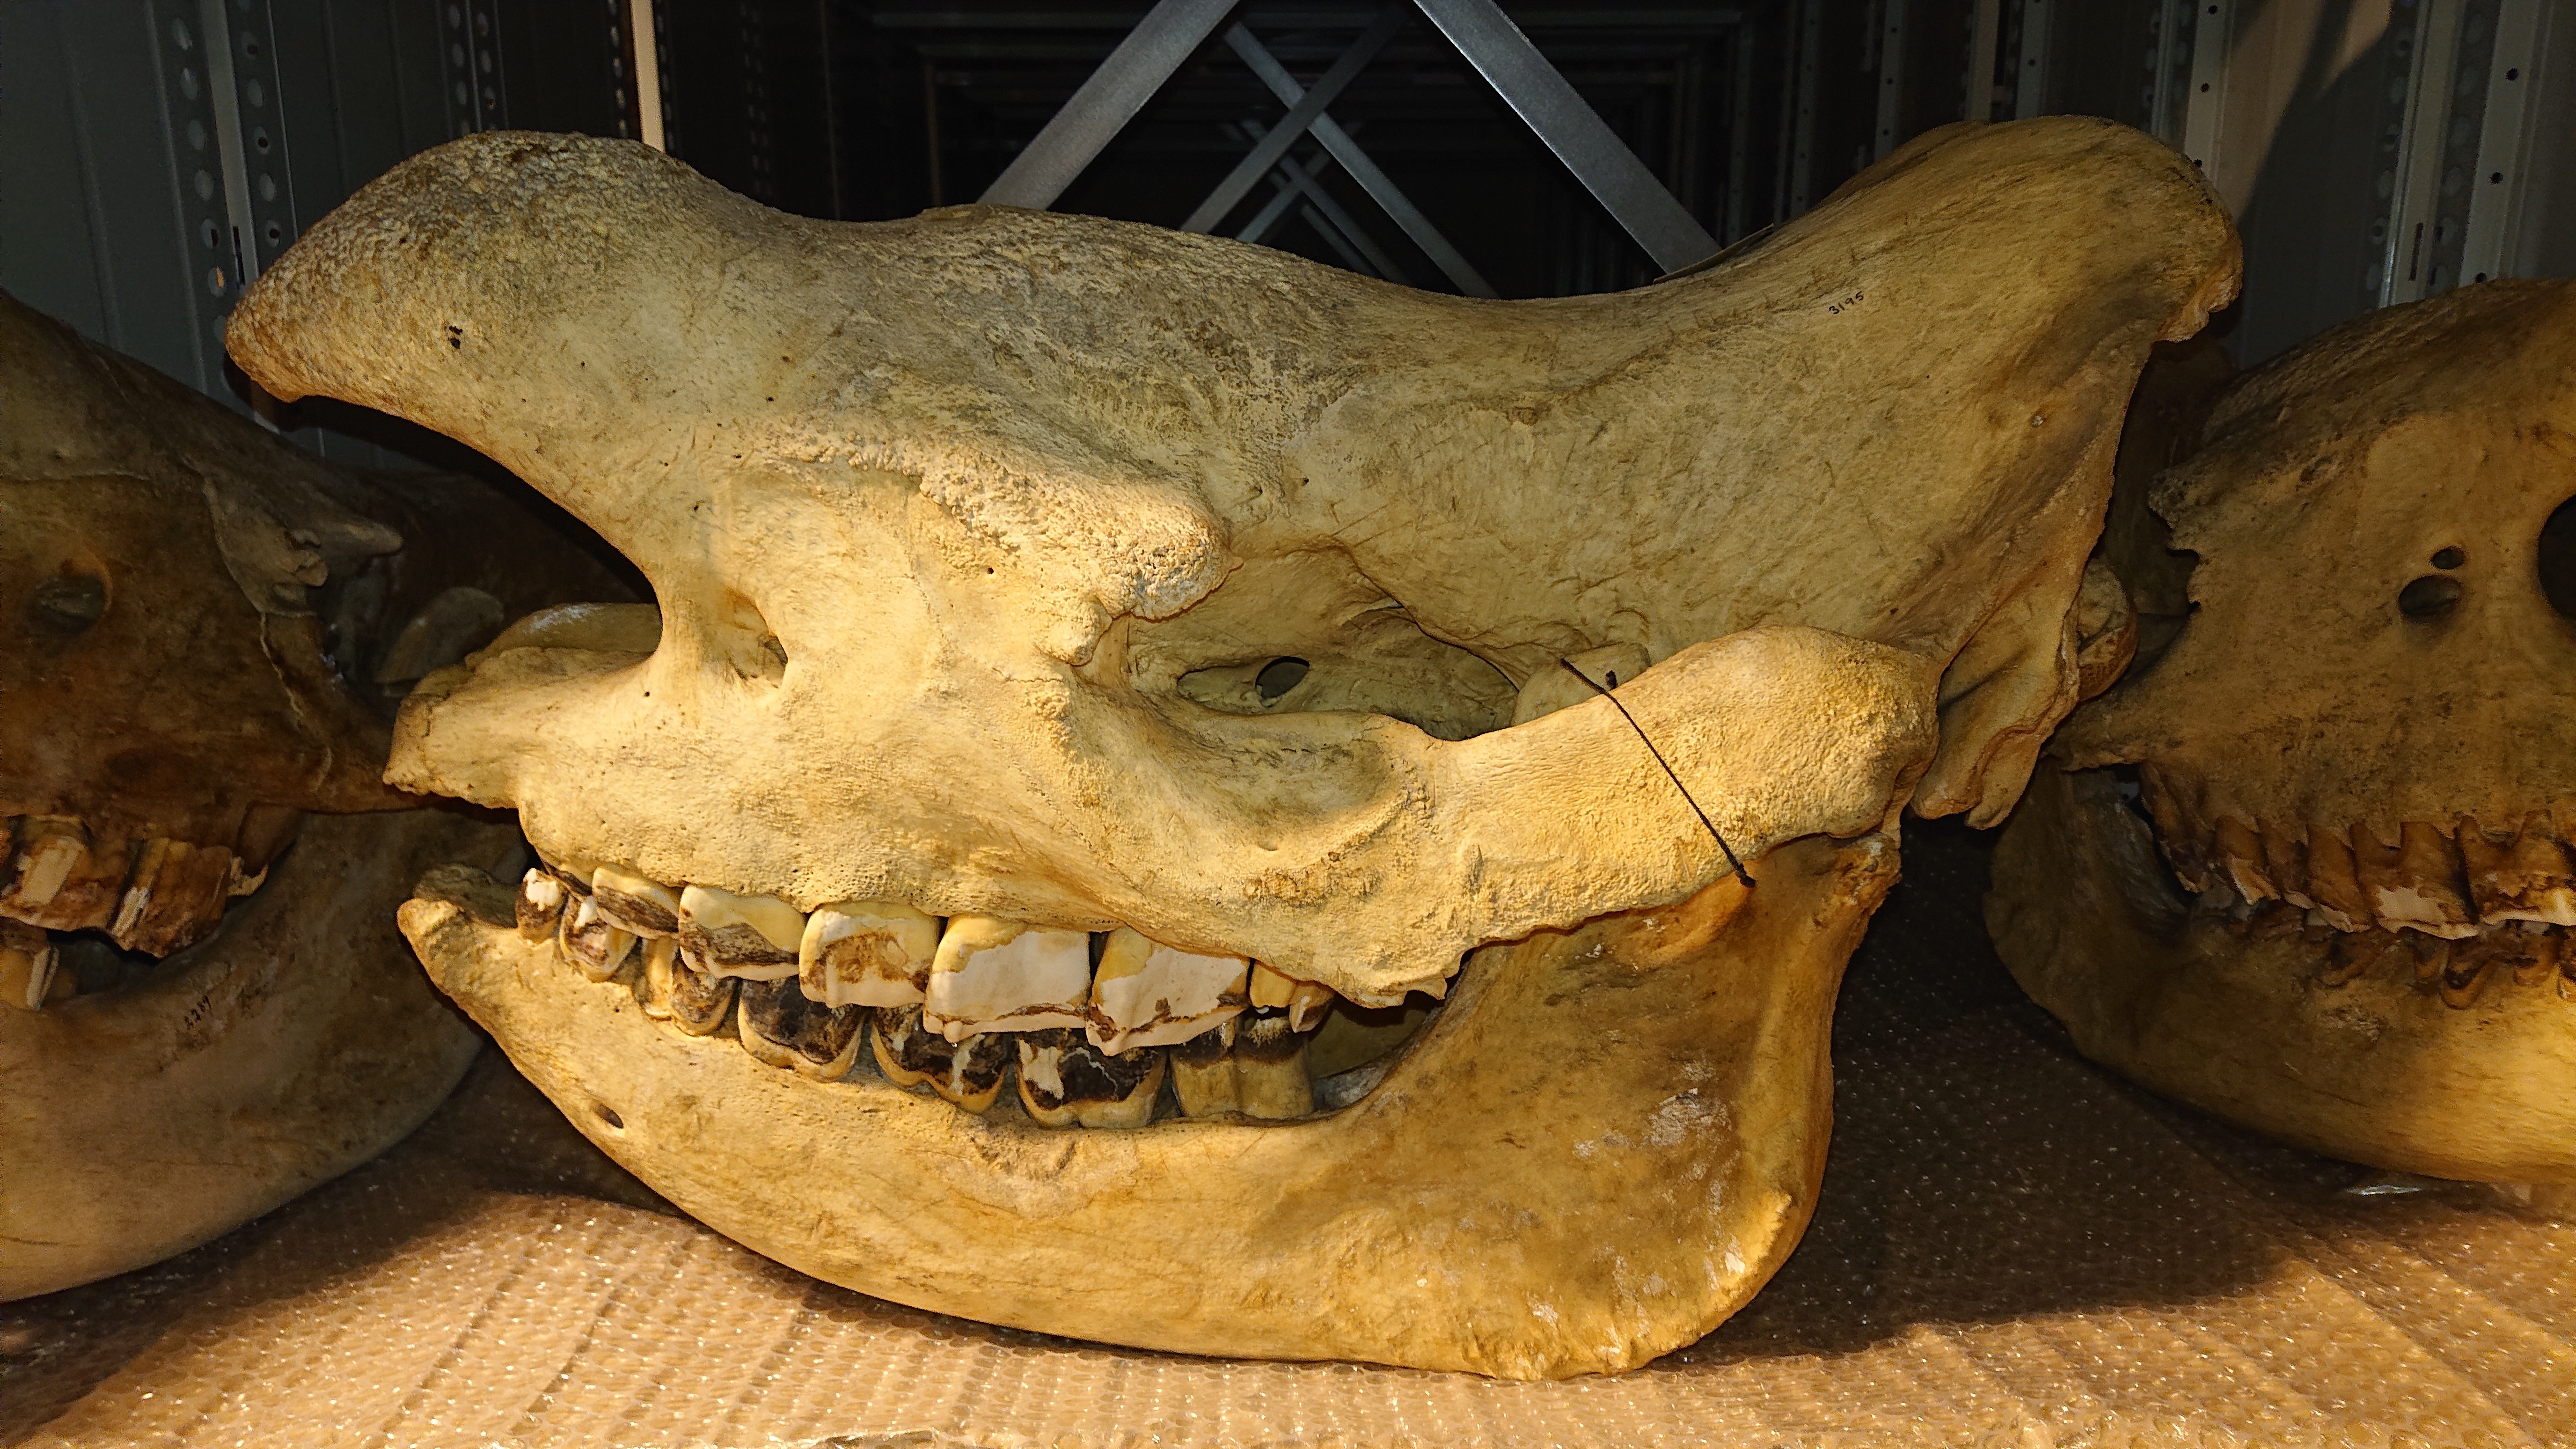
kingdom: Animalia
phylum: Chordata
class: Mammalia
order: Perissodactyla
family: Rhinocerotidae
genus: Diceros
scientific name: Diceros bicornis
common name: Black rhinoceros
